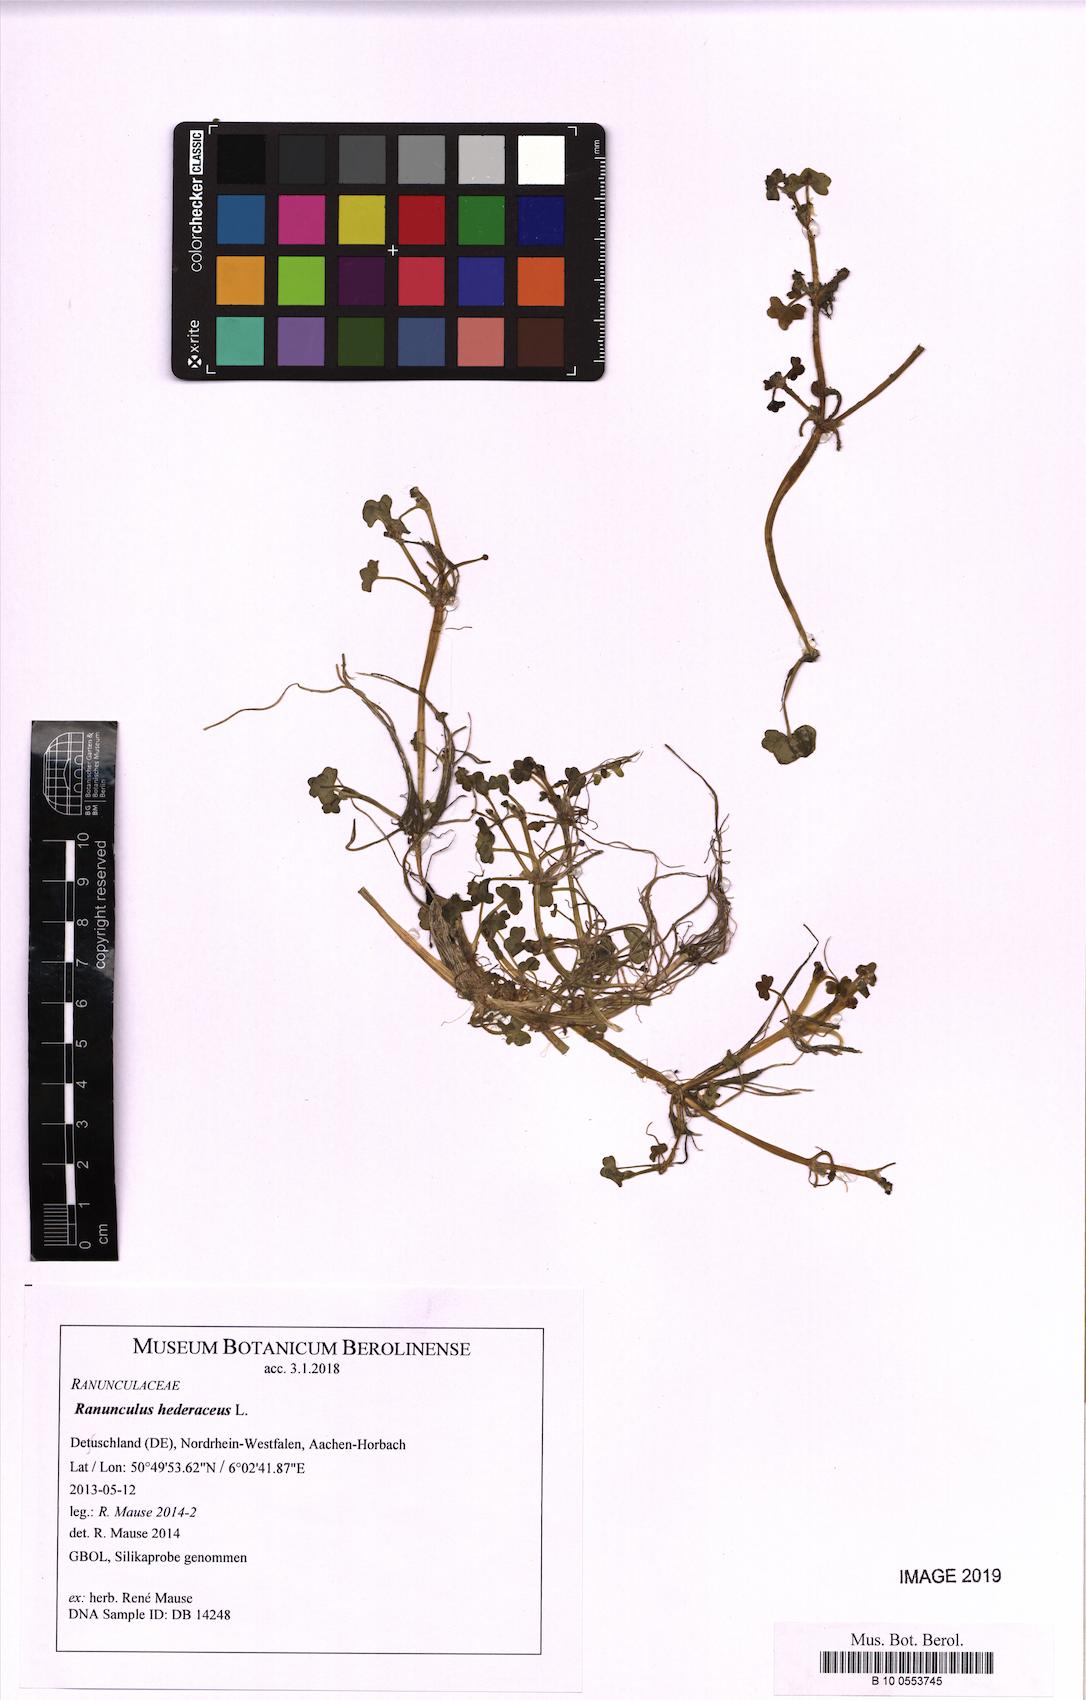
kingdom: Plantae
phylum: Tracheophyta
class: Magnoliopsida
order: Ranunculales
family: Ranunculaceae
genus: Ranunculus
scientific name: Ranunculus hederaceus
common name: Ivy-leaved crowfoot
